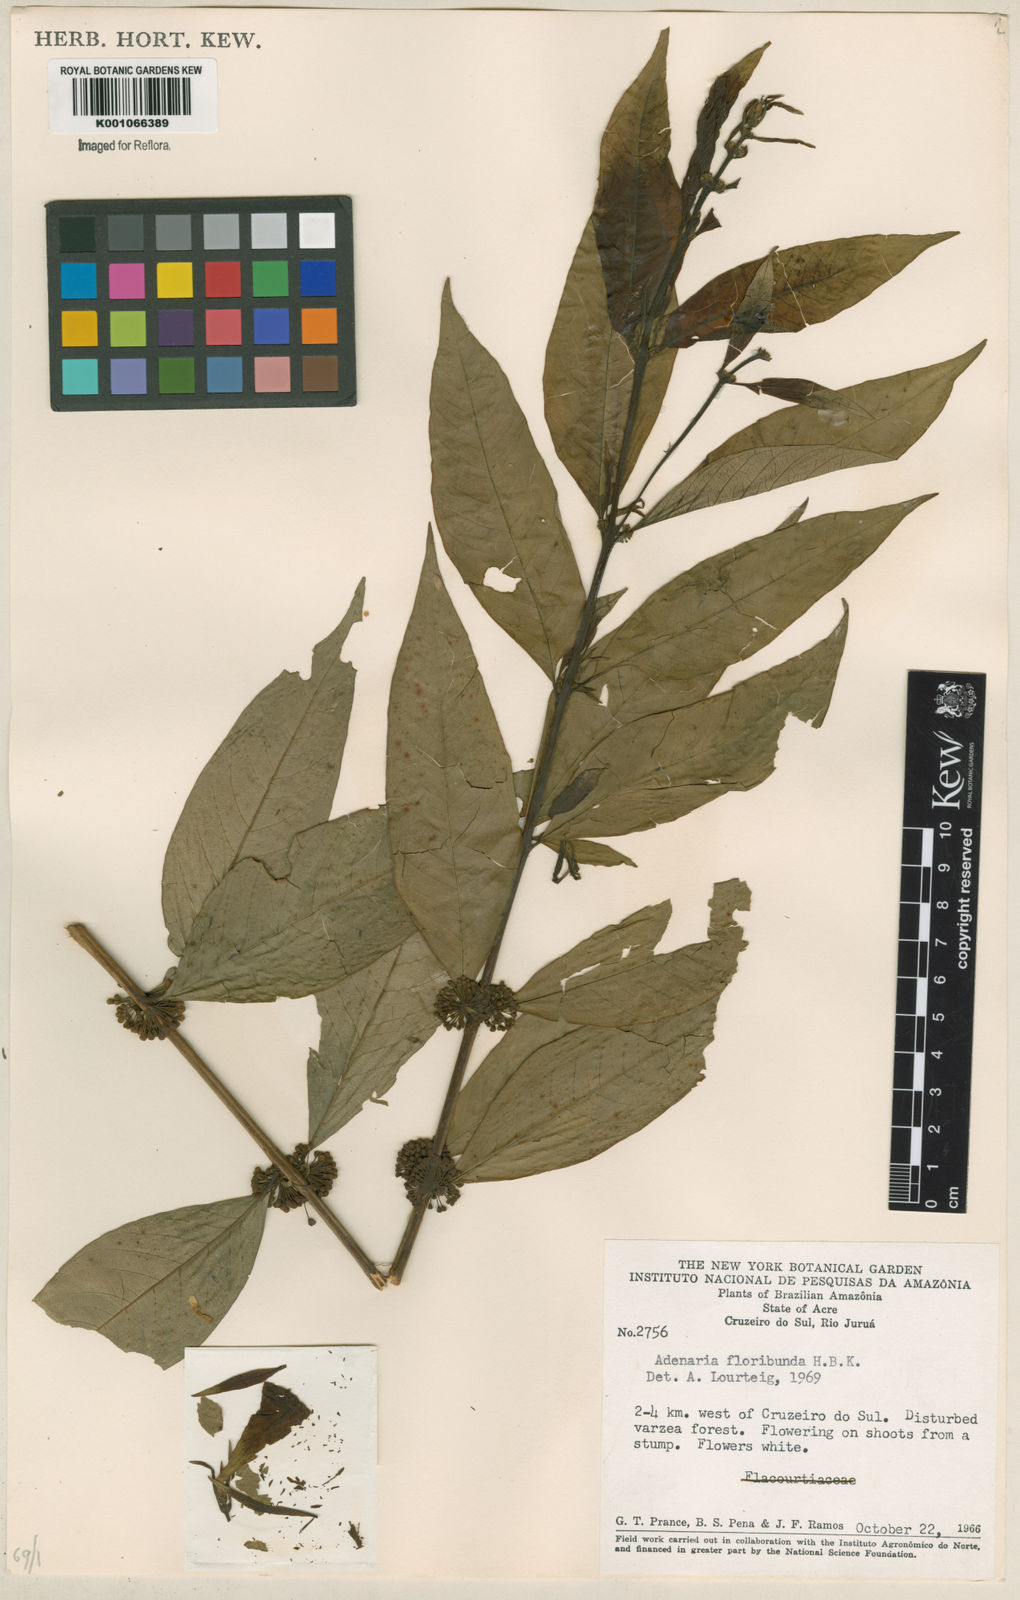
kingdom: Plantae
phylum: Tracheophyta
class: Magnoliopsida
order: Myrtales
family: Lythraceae
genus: Adenaria
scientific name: Adenaria floribunda
